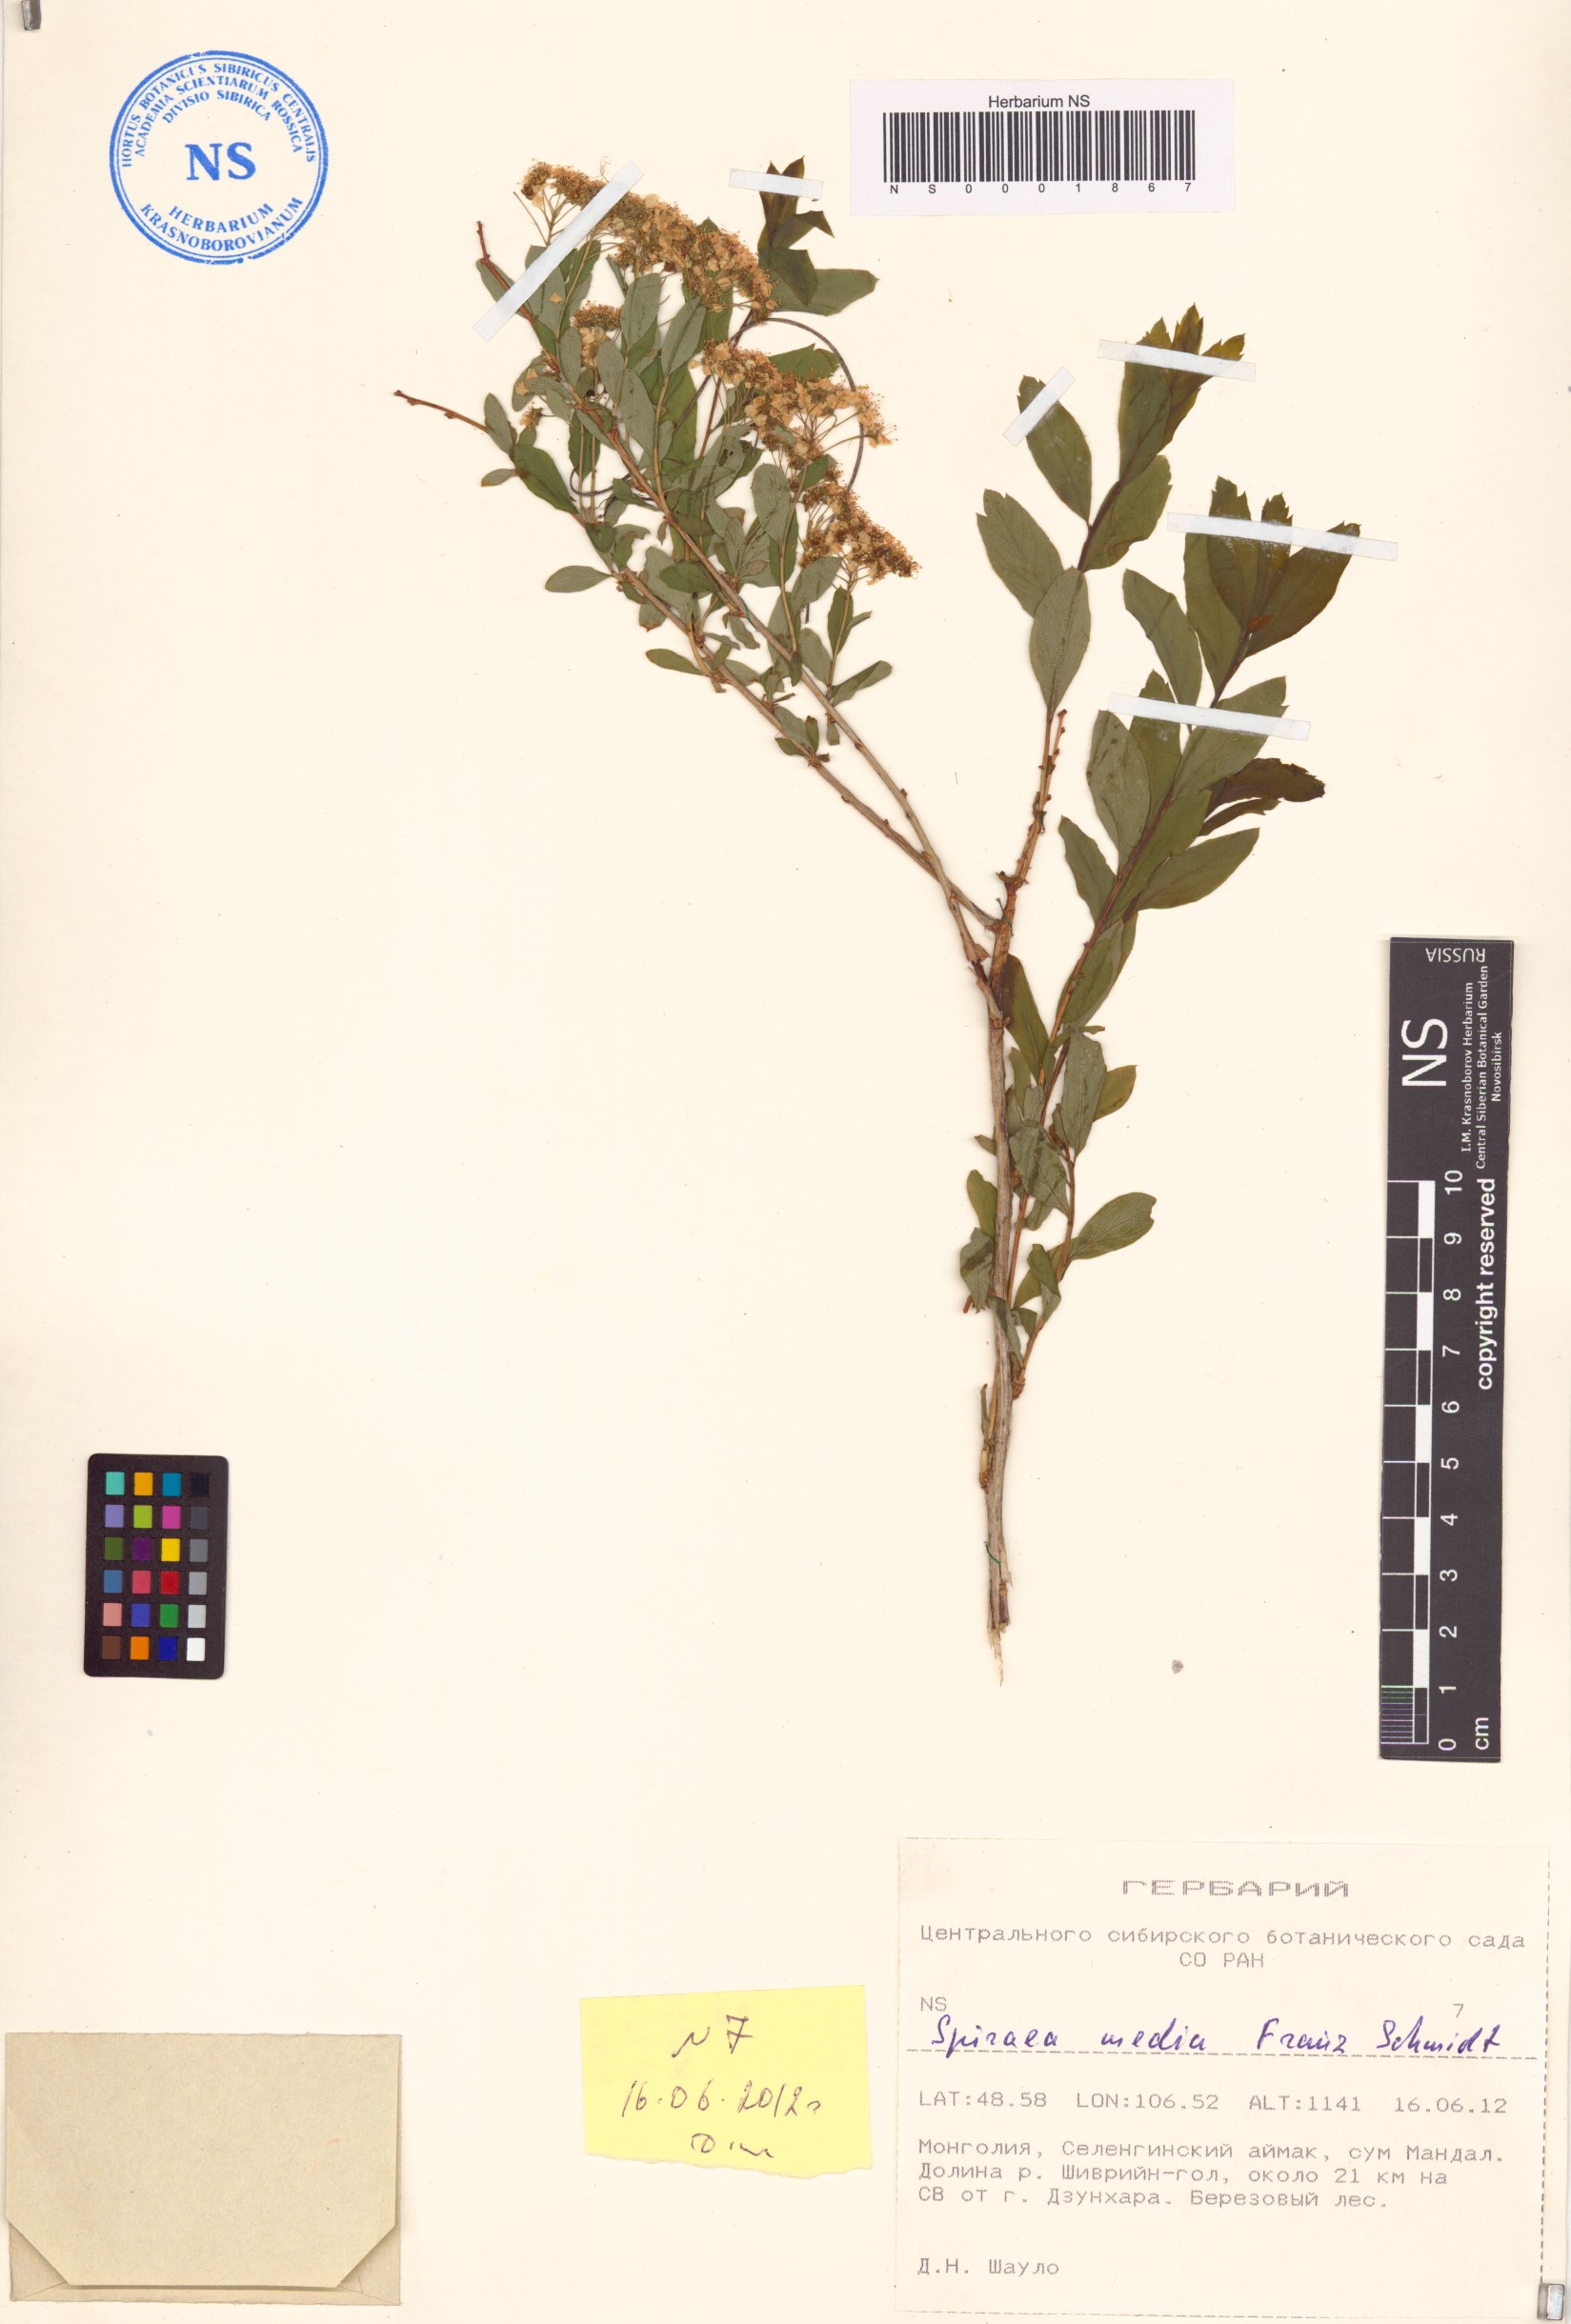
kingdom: Plantae
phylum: Tracheophyta
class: Magnoliopsida
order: Rosales
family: Rosaceae
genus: Spiraea
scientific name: Spiraea media
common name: Russian spiraea
